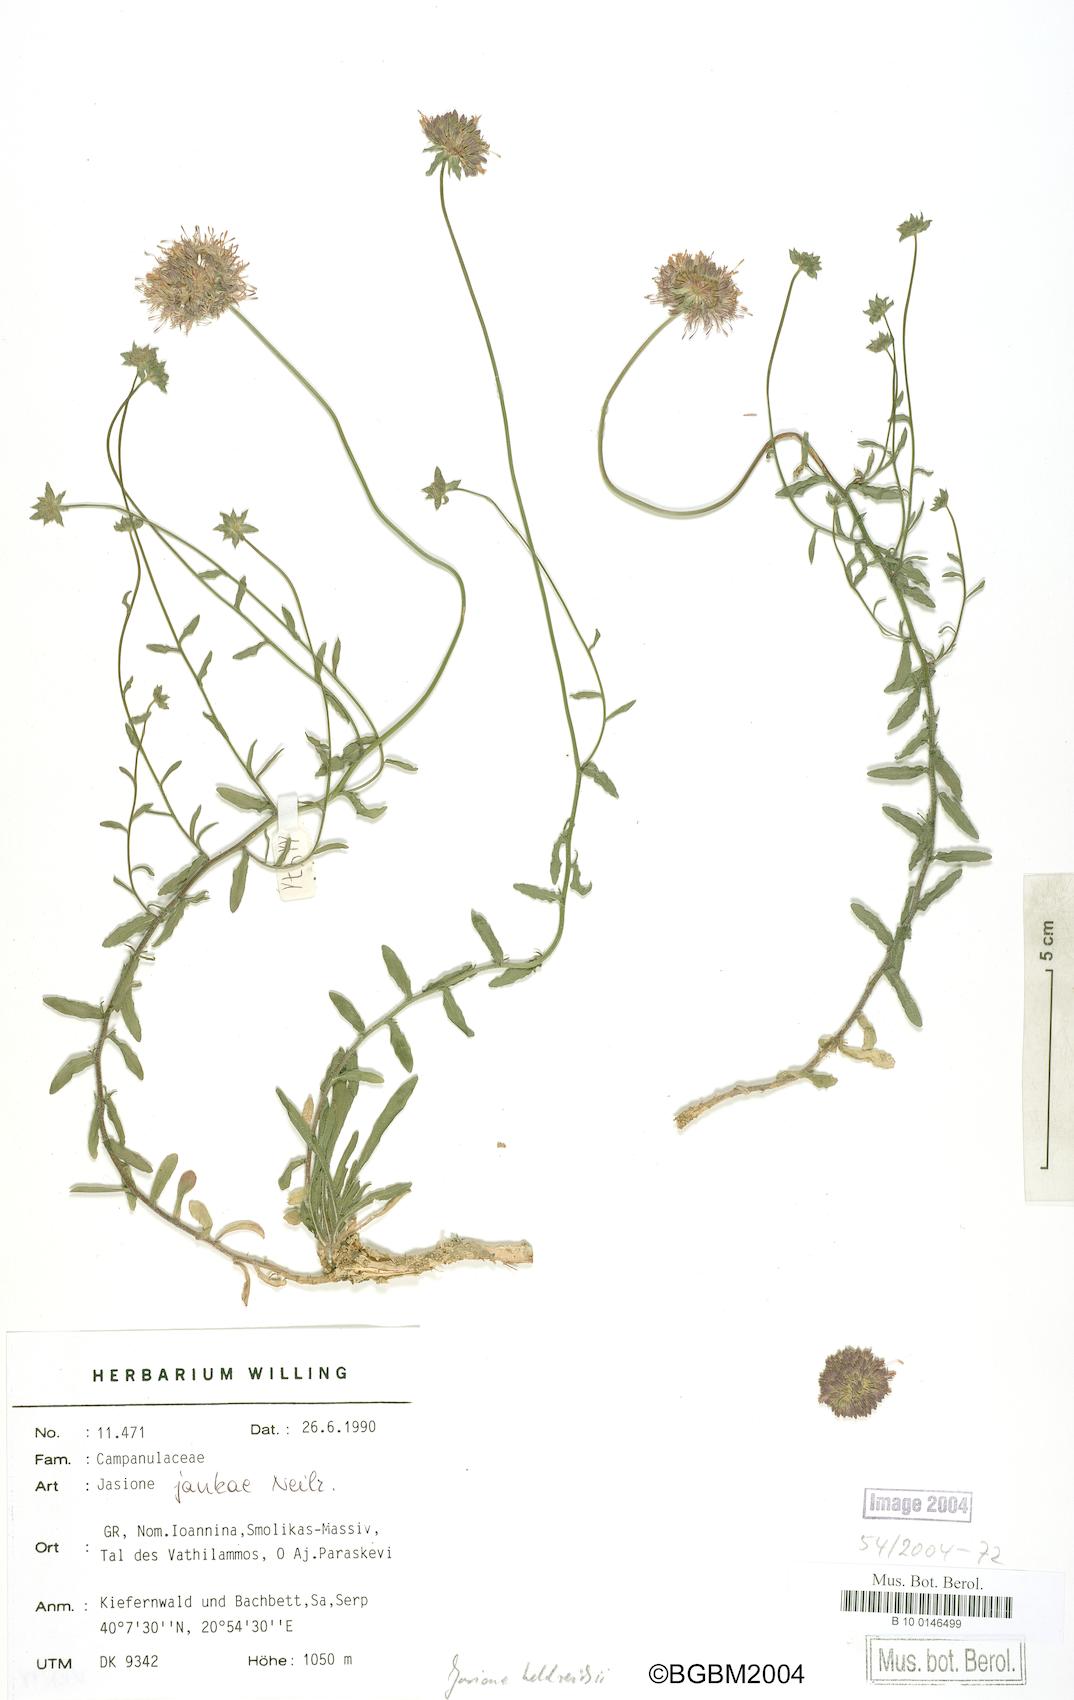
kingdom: Plantae
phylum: Tracheophyta
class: Magnoliopsida
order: Asterales
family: Campanulaceae
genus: Jasione
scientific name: Jasione heldreichii
